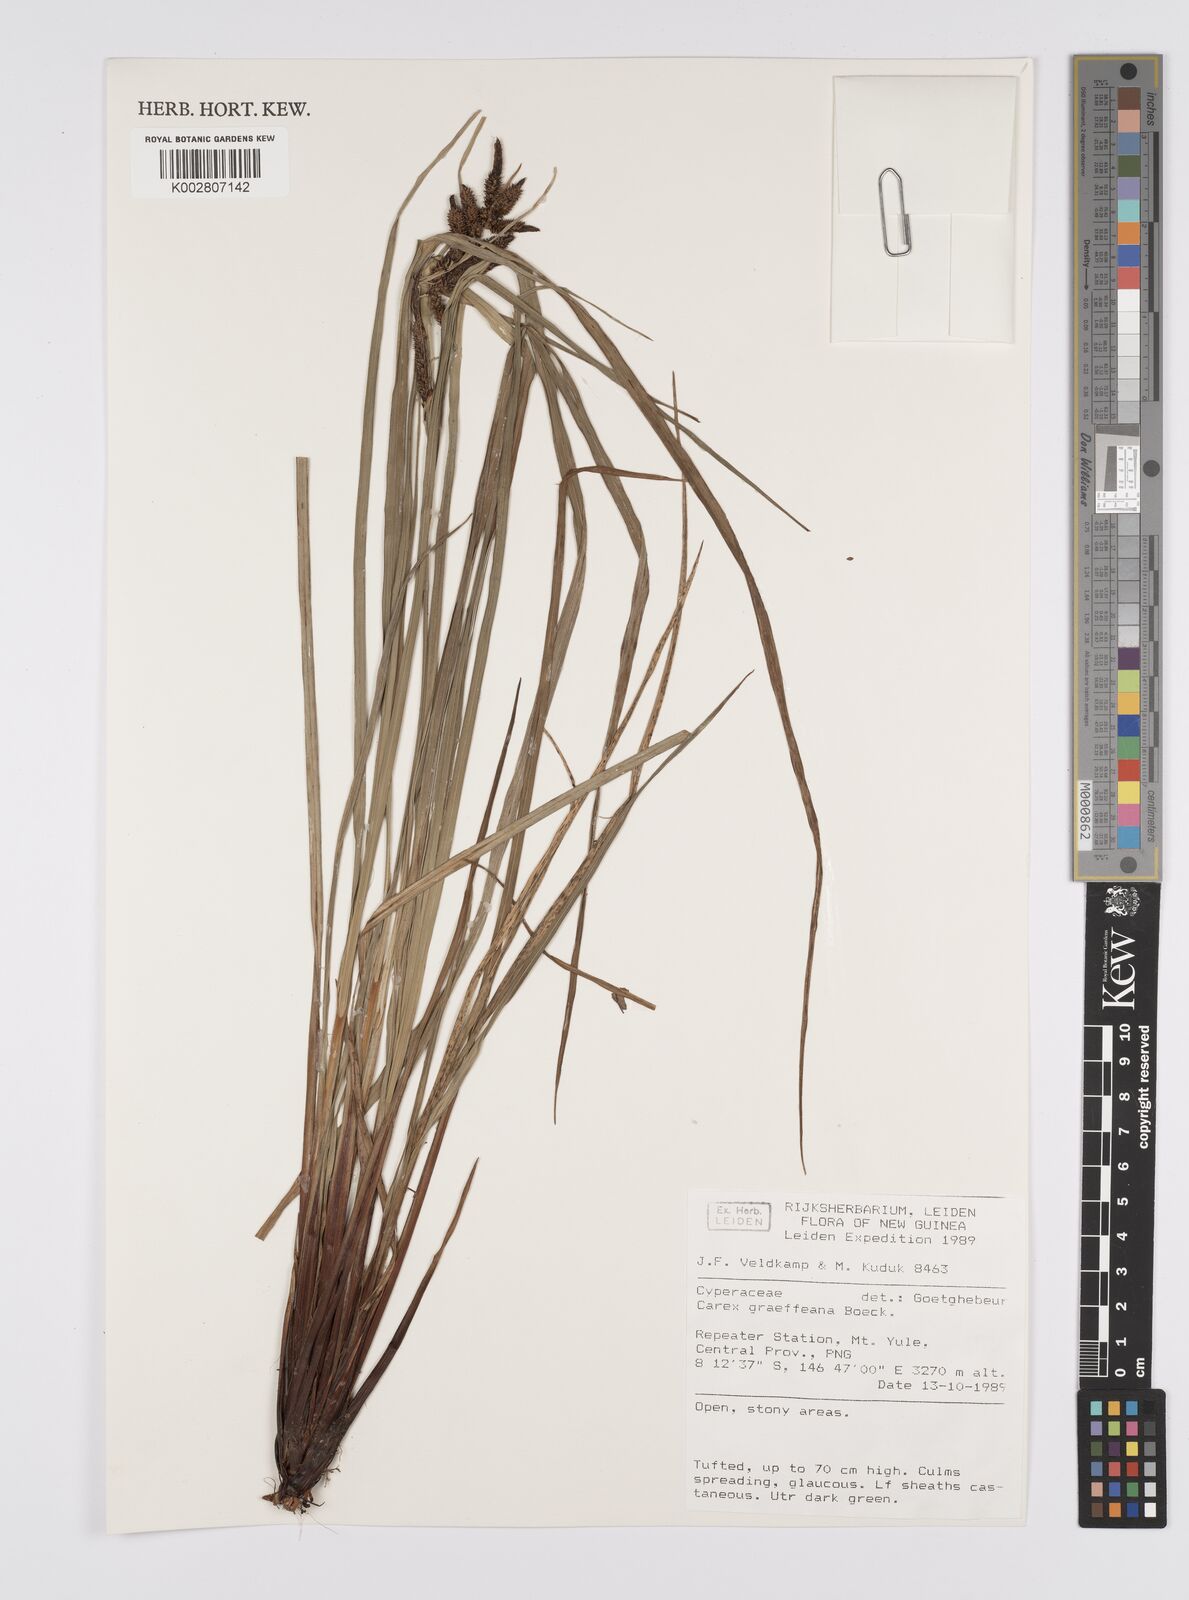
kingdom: Plantae
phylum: Tracheophyta
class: Liliopsida
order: Poales
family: Cyperaceae
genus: Carex
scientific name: Carex graeffeana
